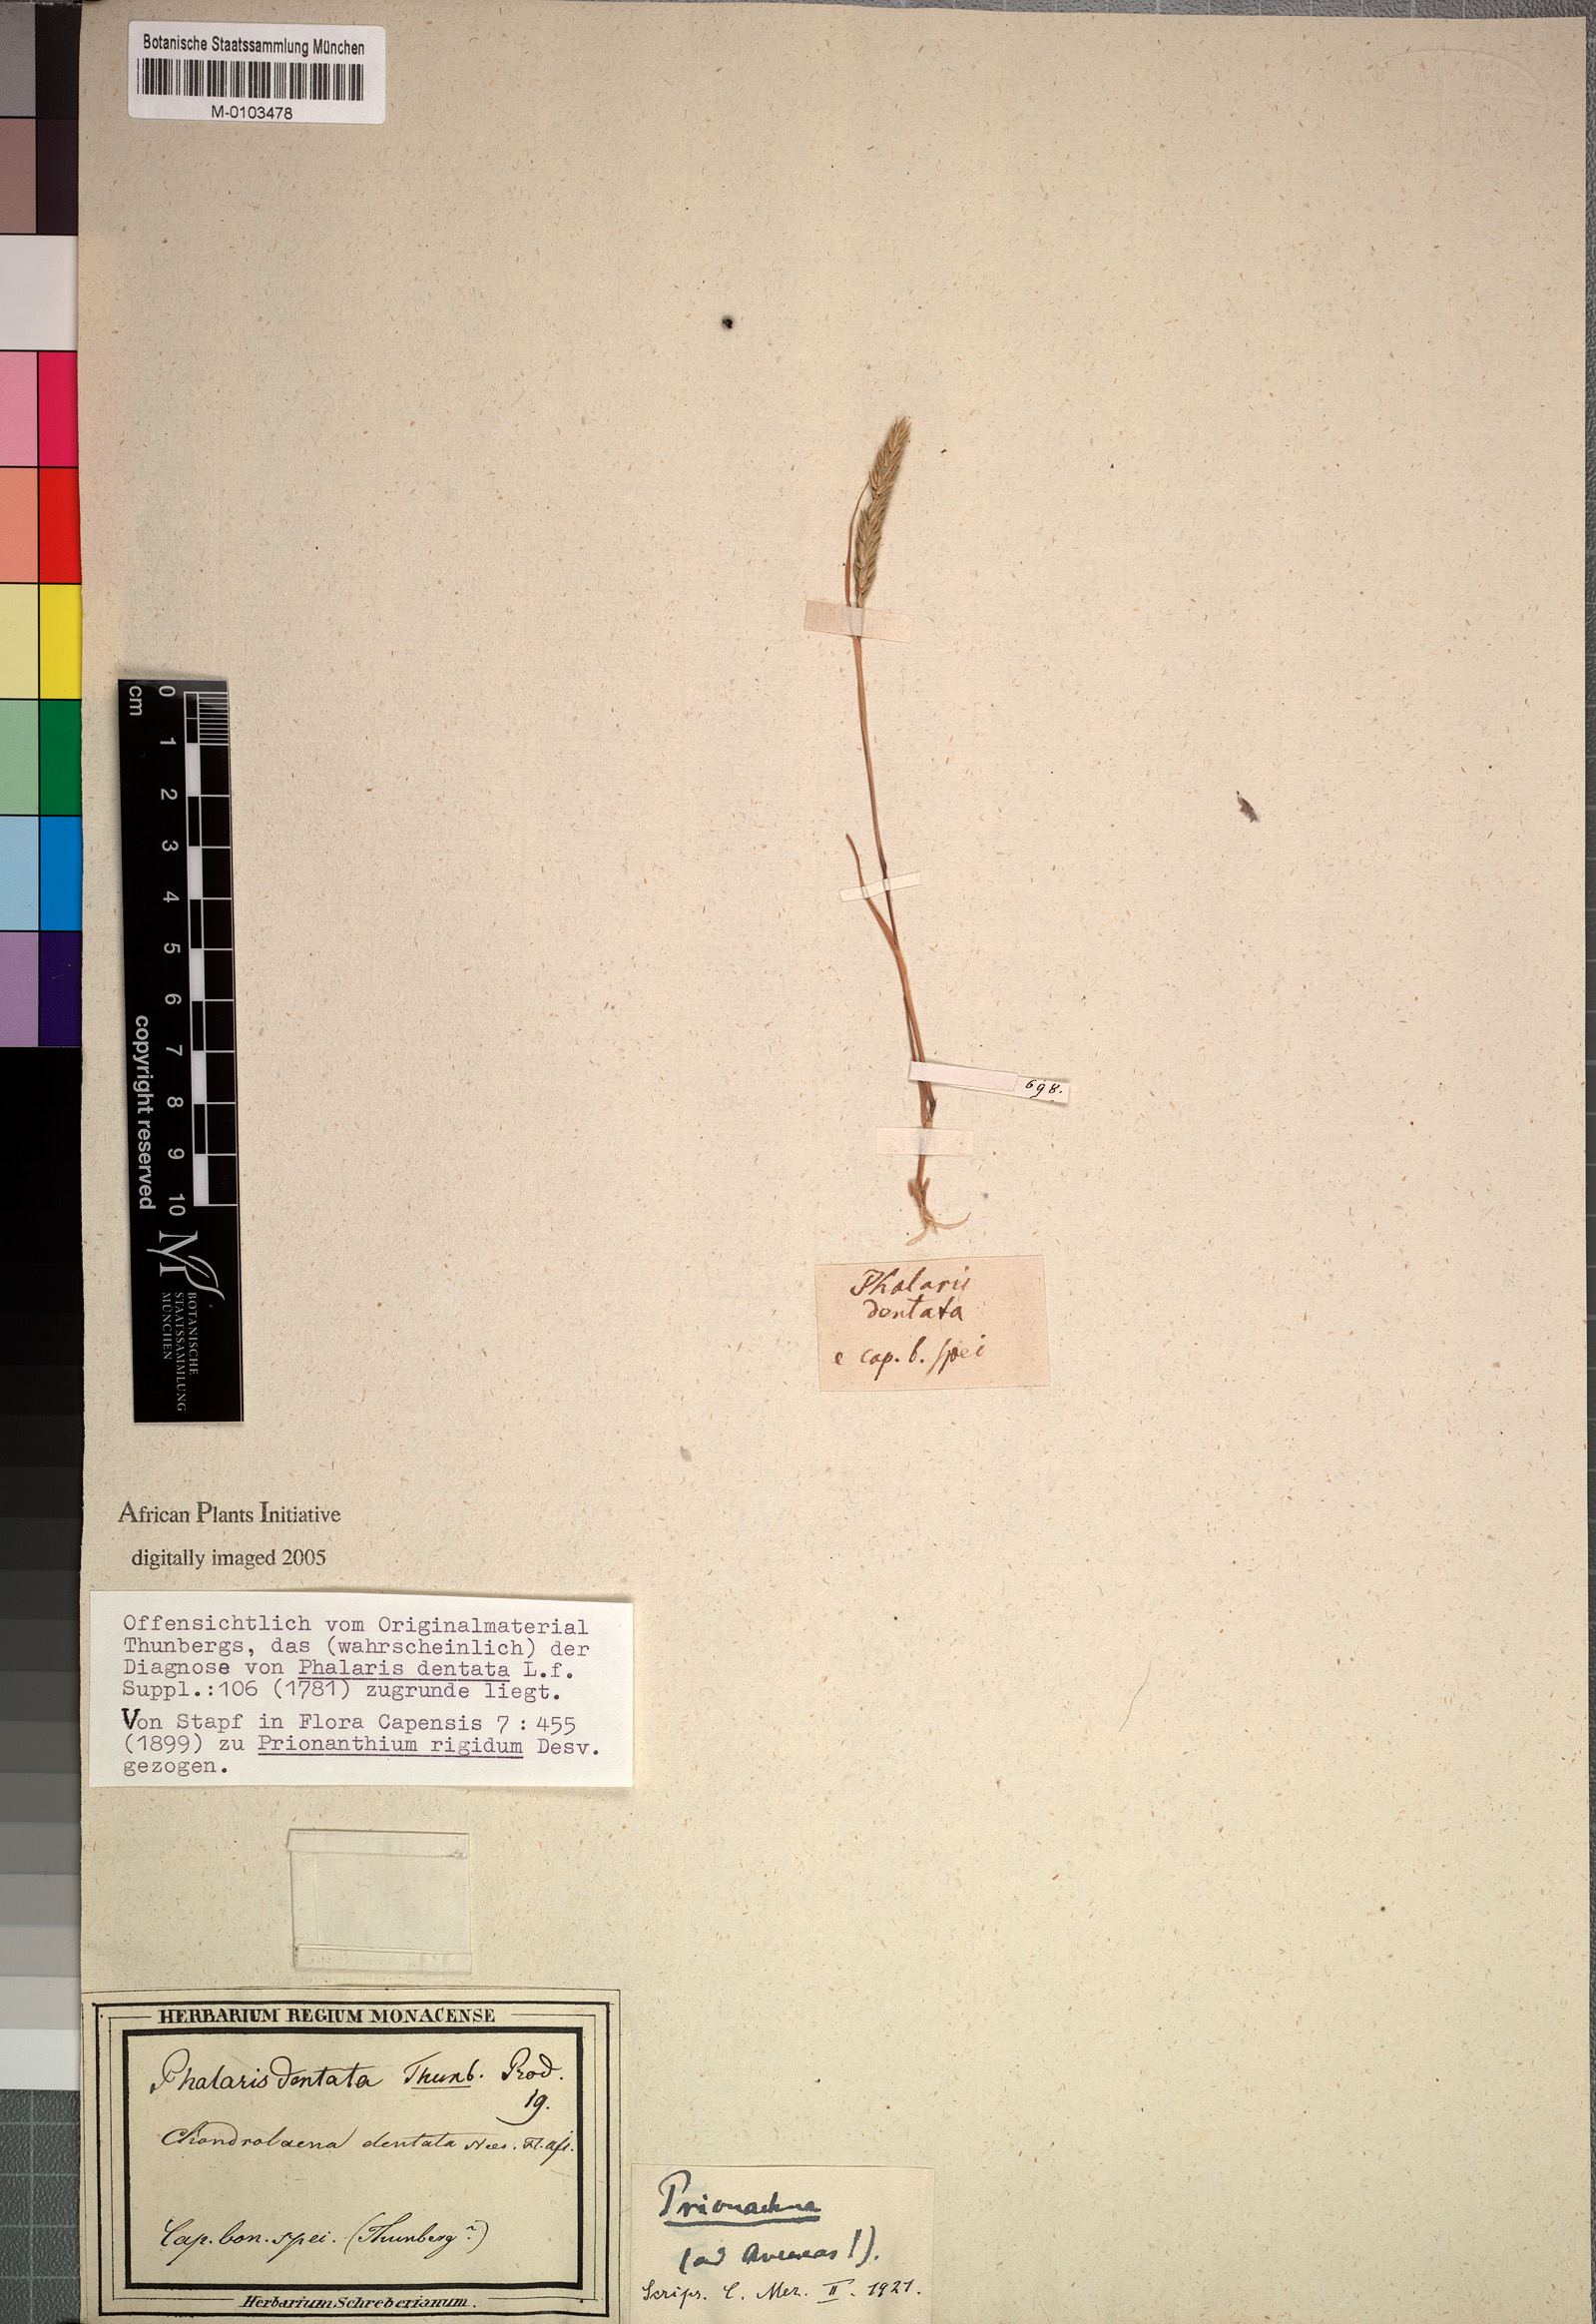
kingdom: Plantae
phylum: Tracheophyta
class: Liliopsida
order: Poales
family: Poaceae
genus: Pentameris
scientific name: Pentameris dentata
